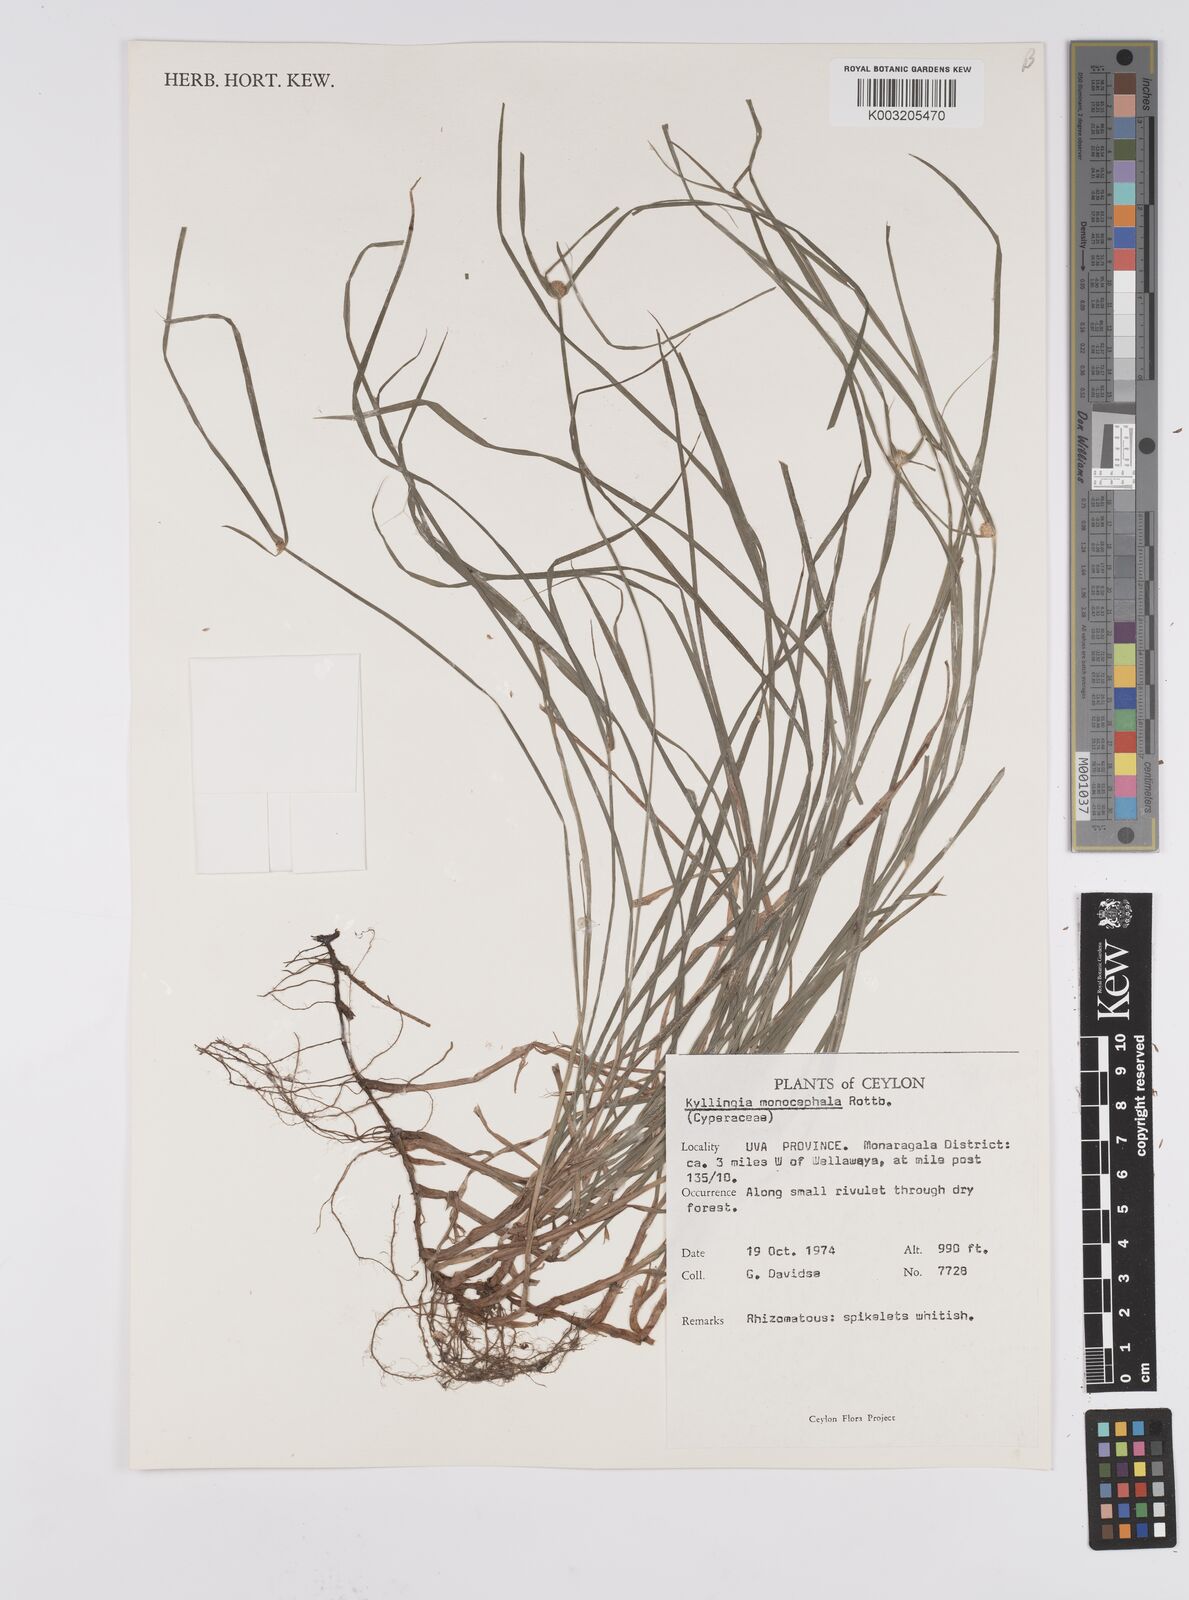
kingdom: Plantae
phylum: Tracheophyta
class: Liliopsida
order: Poales
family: Cyperaceae
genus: Cyperus
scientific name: Cyperus nemoralis
